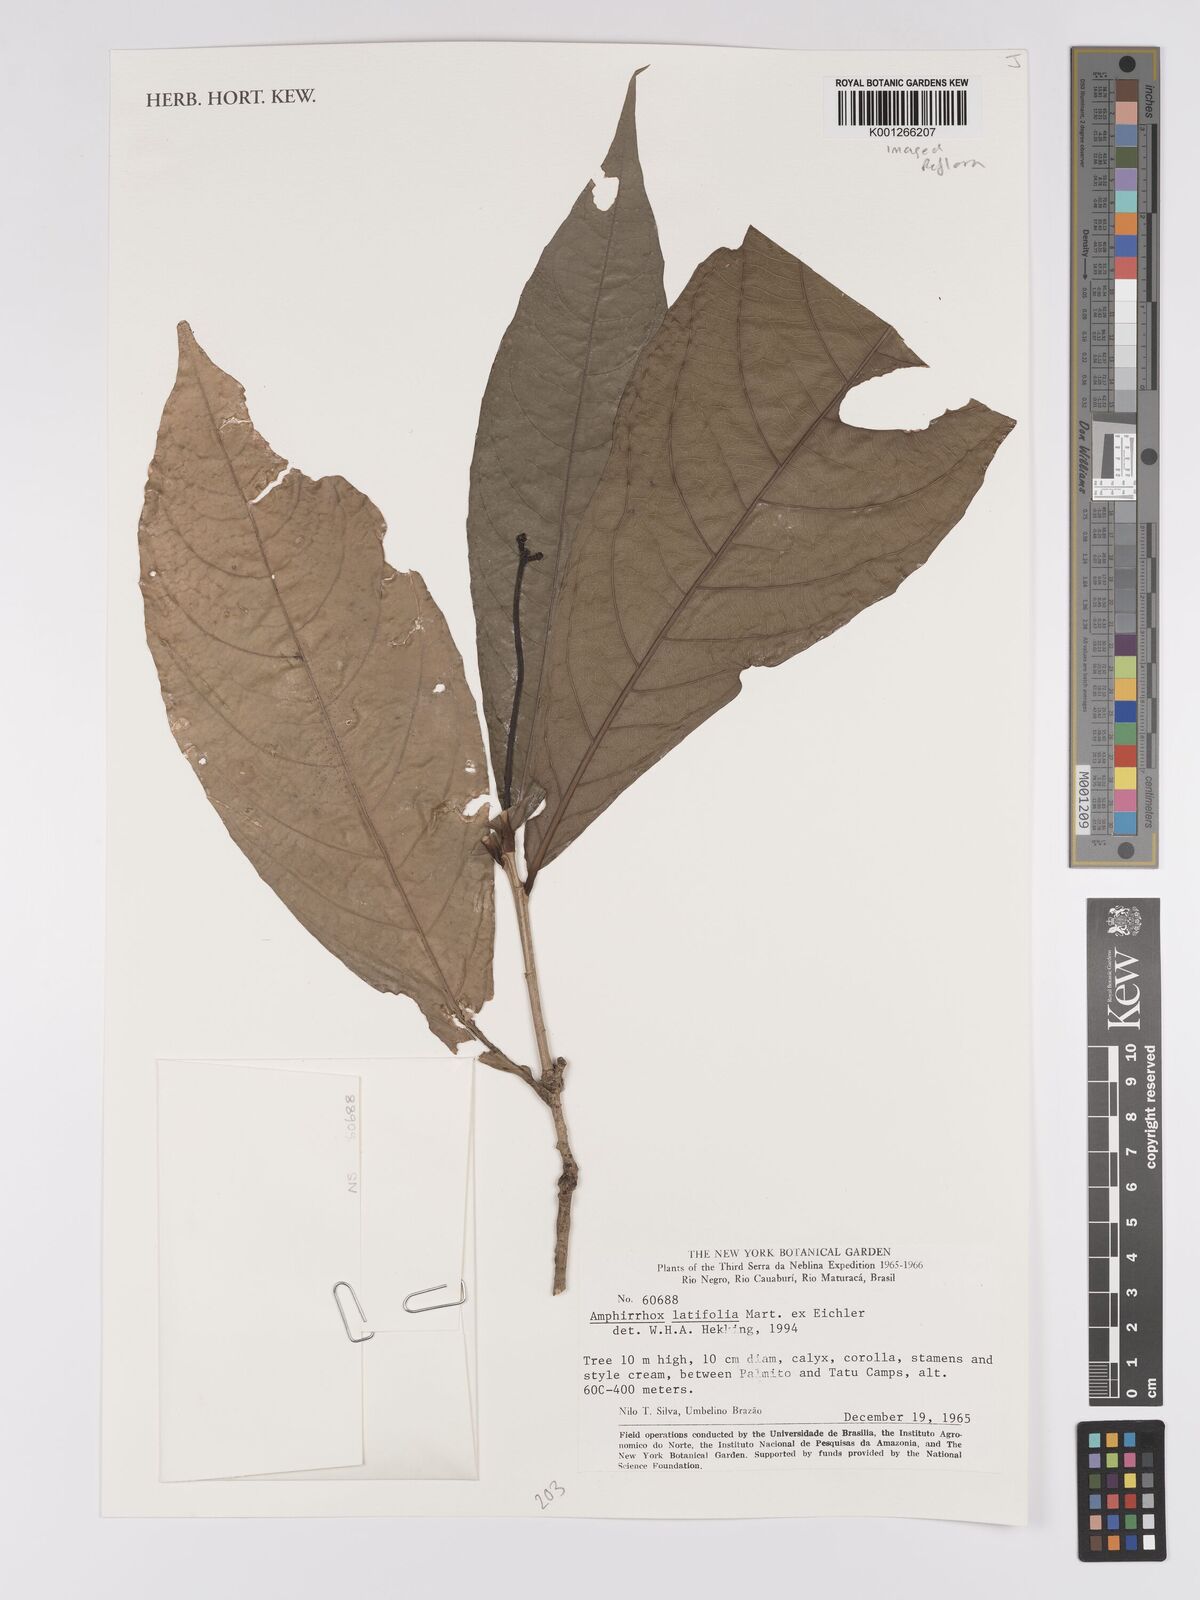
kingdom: Plantae
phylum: Tracheophyta
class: Magnoliopsida
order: Malpighiales
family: Violaceae
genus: Amphirrhox
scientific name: Amphirrhox longifolia
